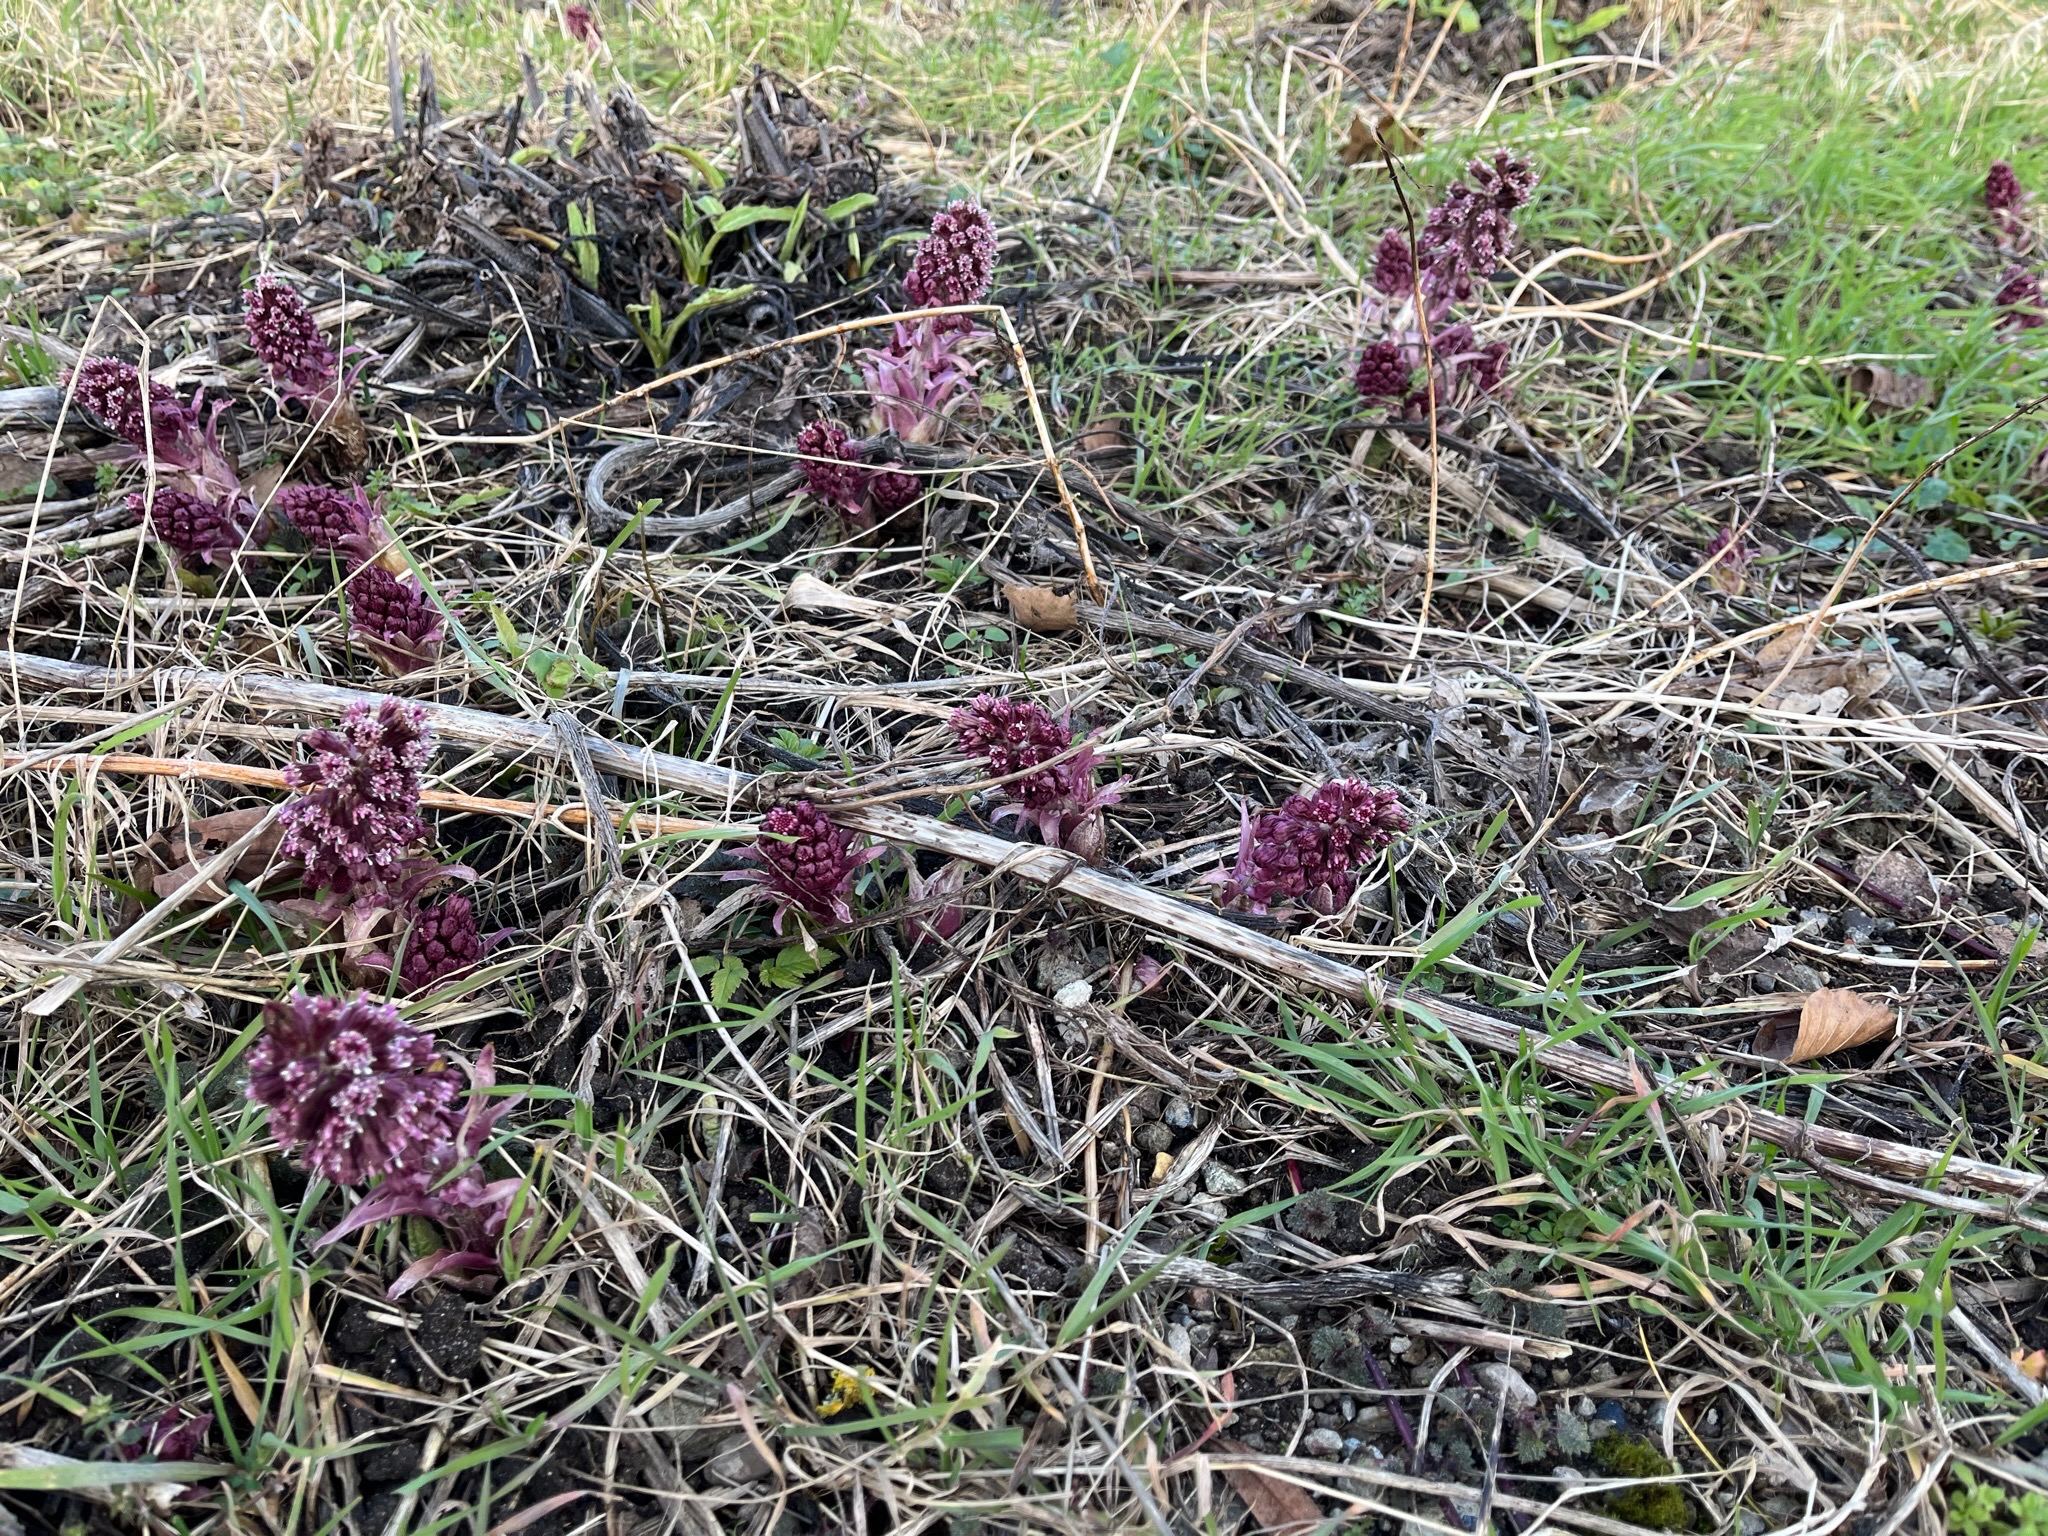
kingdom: Plantae
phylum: Tracheophyta
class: Magnoliopsida
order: Asterales
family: Asteraceae
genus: Petasites
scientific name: Petasites hybridus
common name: Rød hestehov
